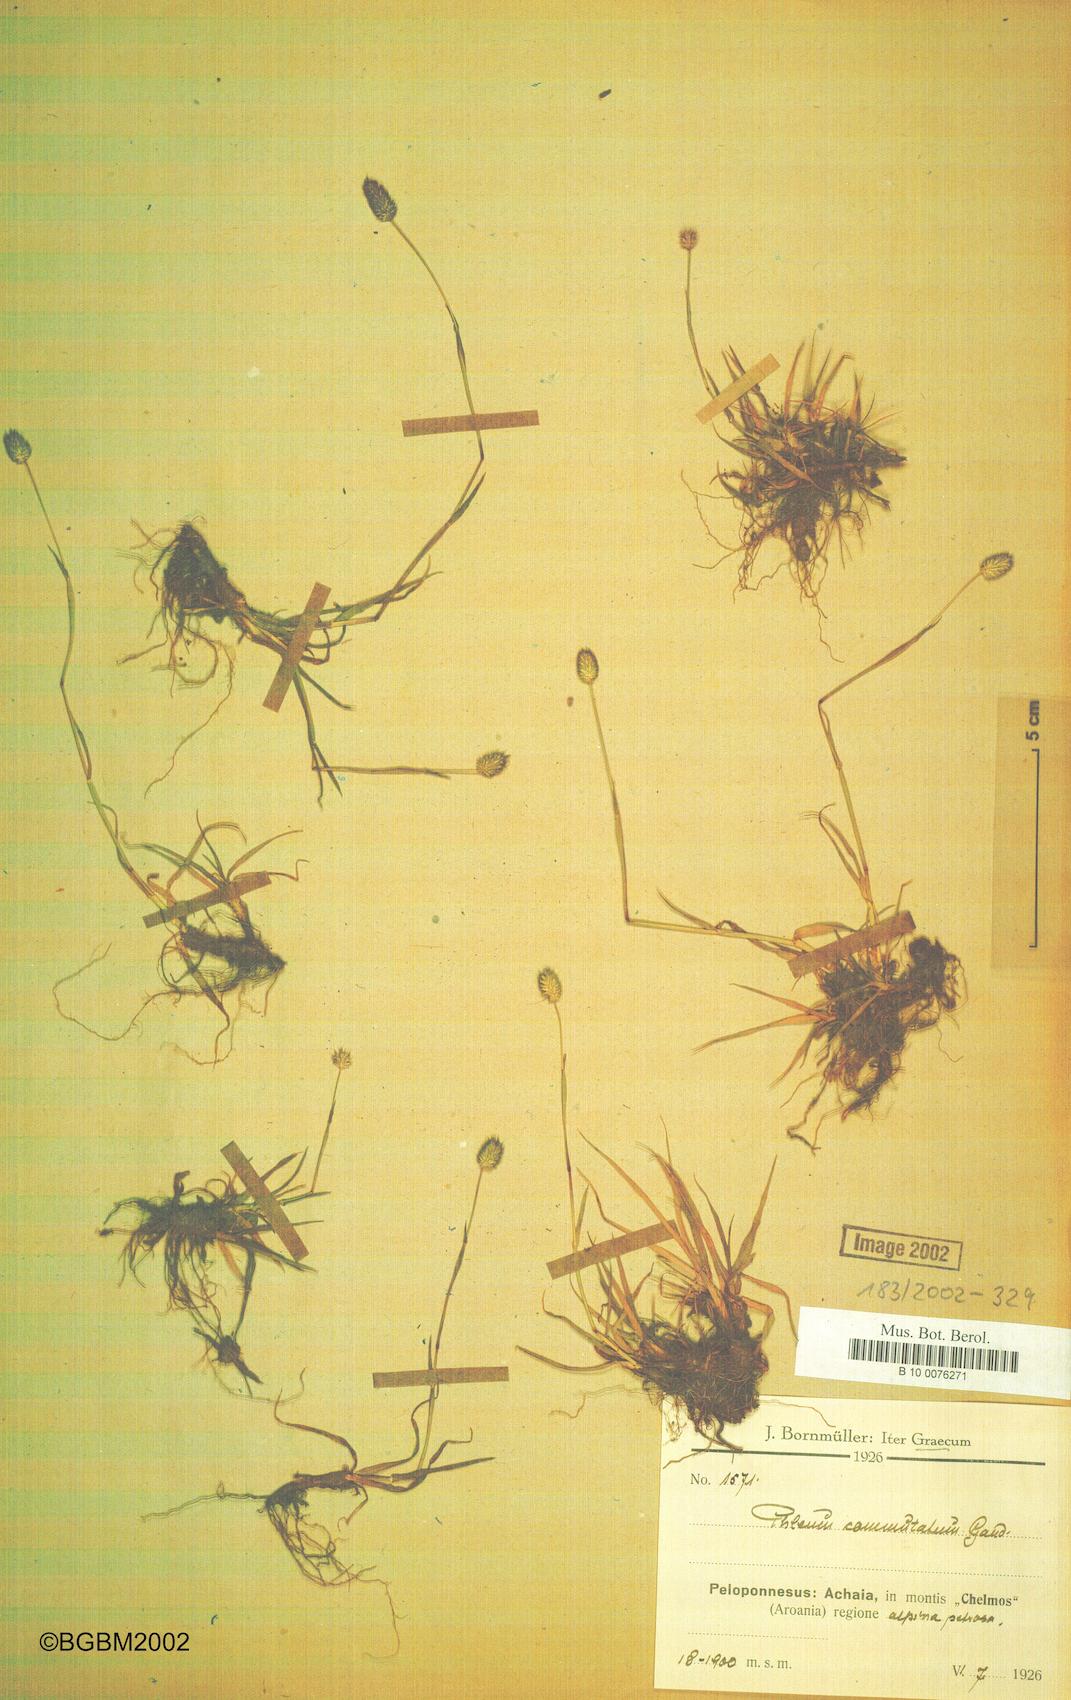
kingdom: Plantae
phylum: Tracheophyta
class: Liliopsida
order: Poales
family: Poaceae
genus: Phleum
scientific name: Phleum alpinum
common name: Alpine cat's-tail
